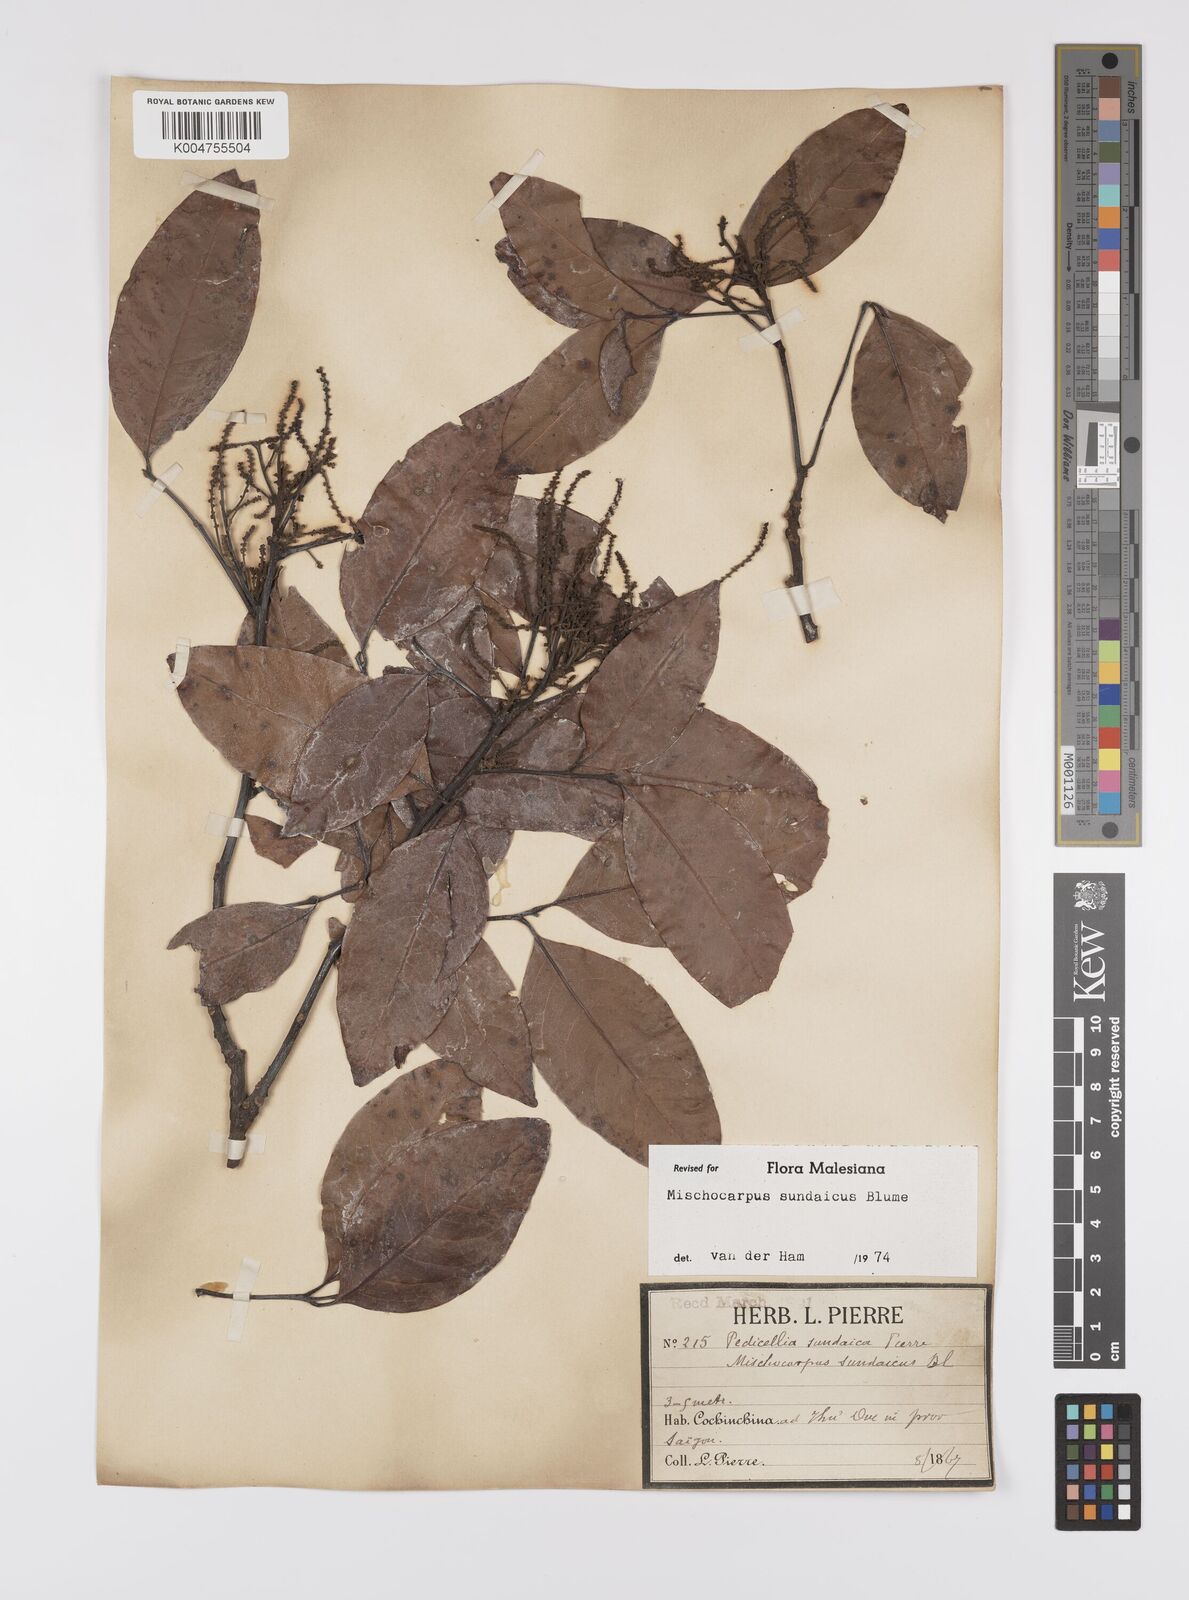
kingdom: Plantae
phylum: Tracheophyta
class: Magnoliopsida
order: Sapindales
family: Sapindaceae
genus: Mischocarpus
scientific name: Mischocarpus sundaicus
